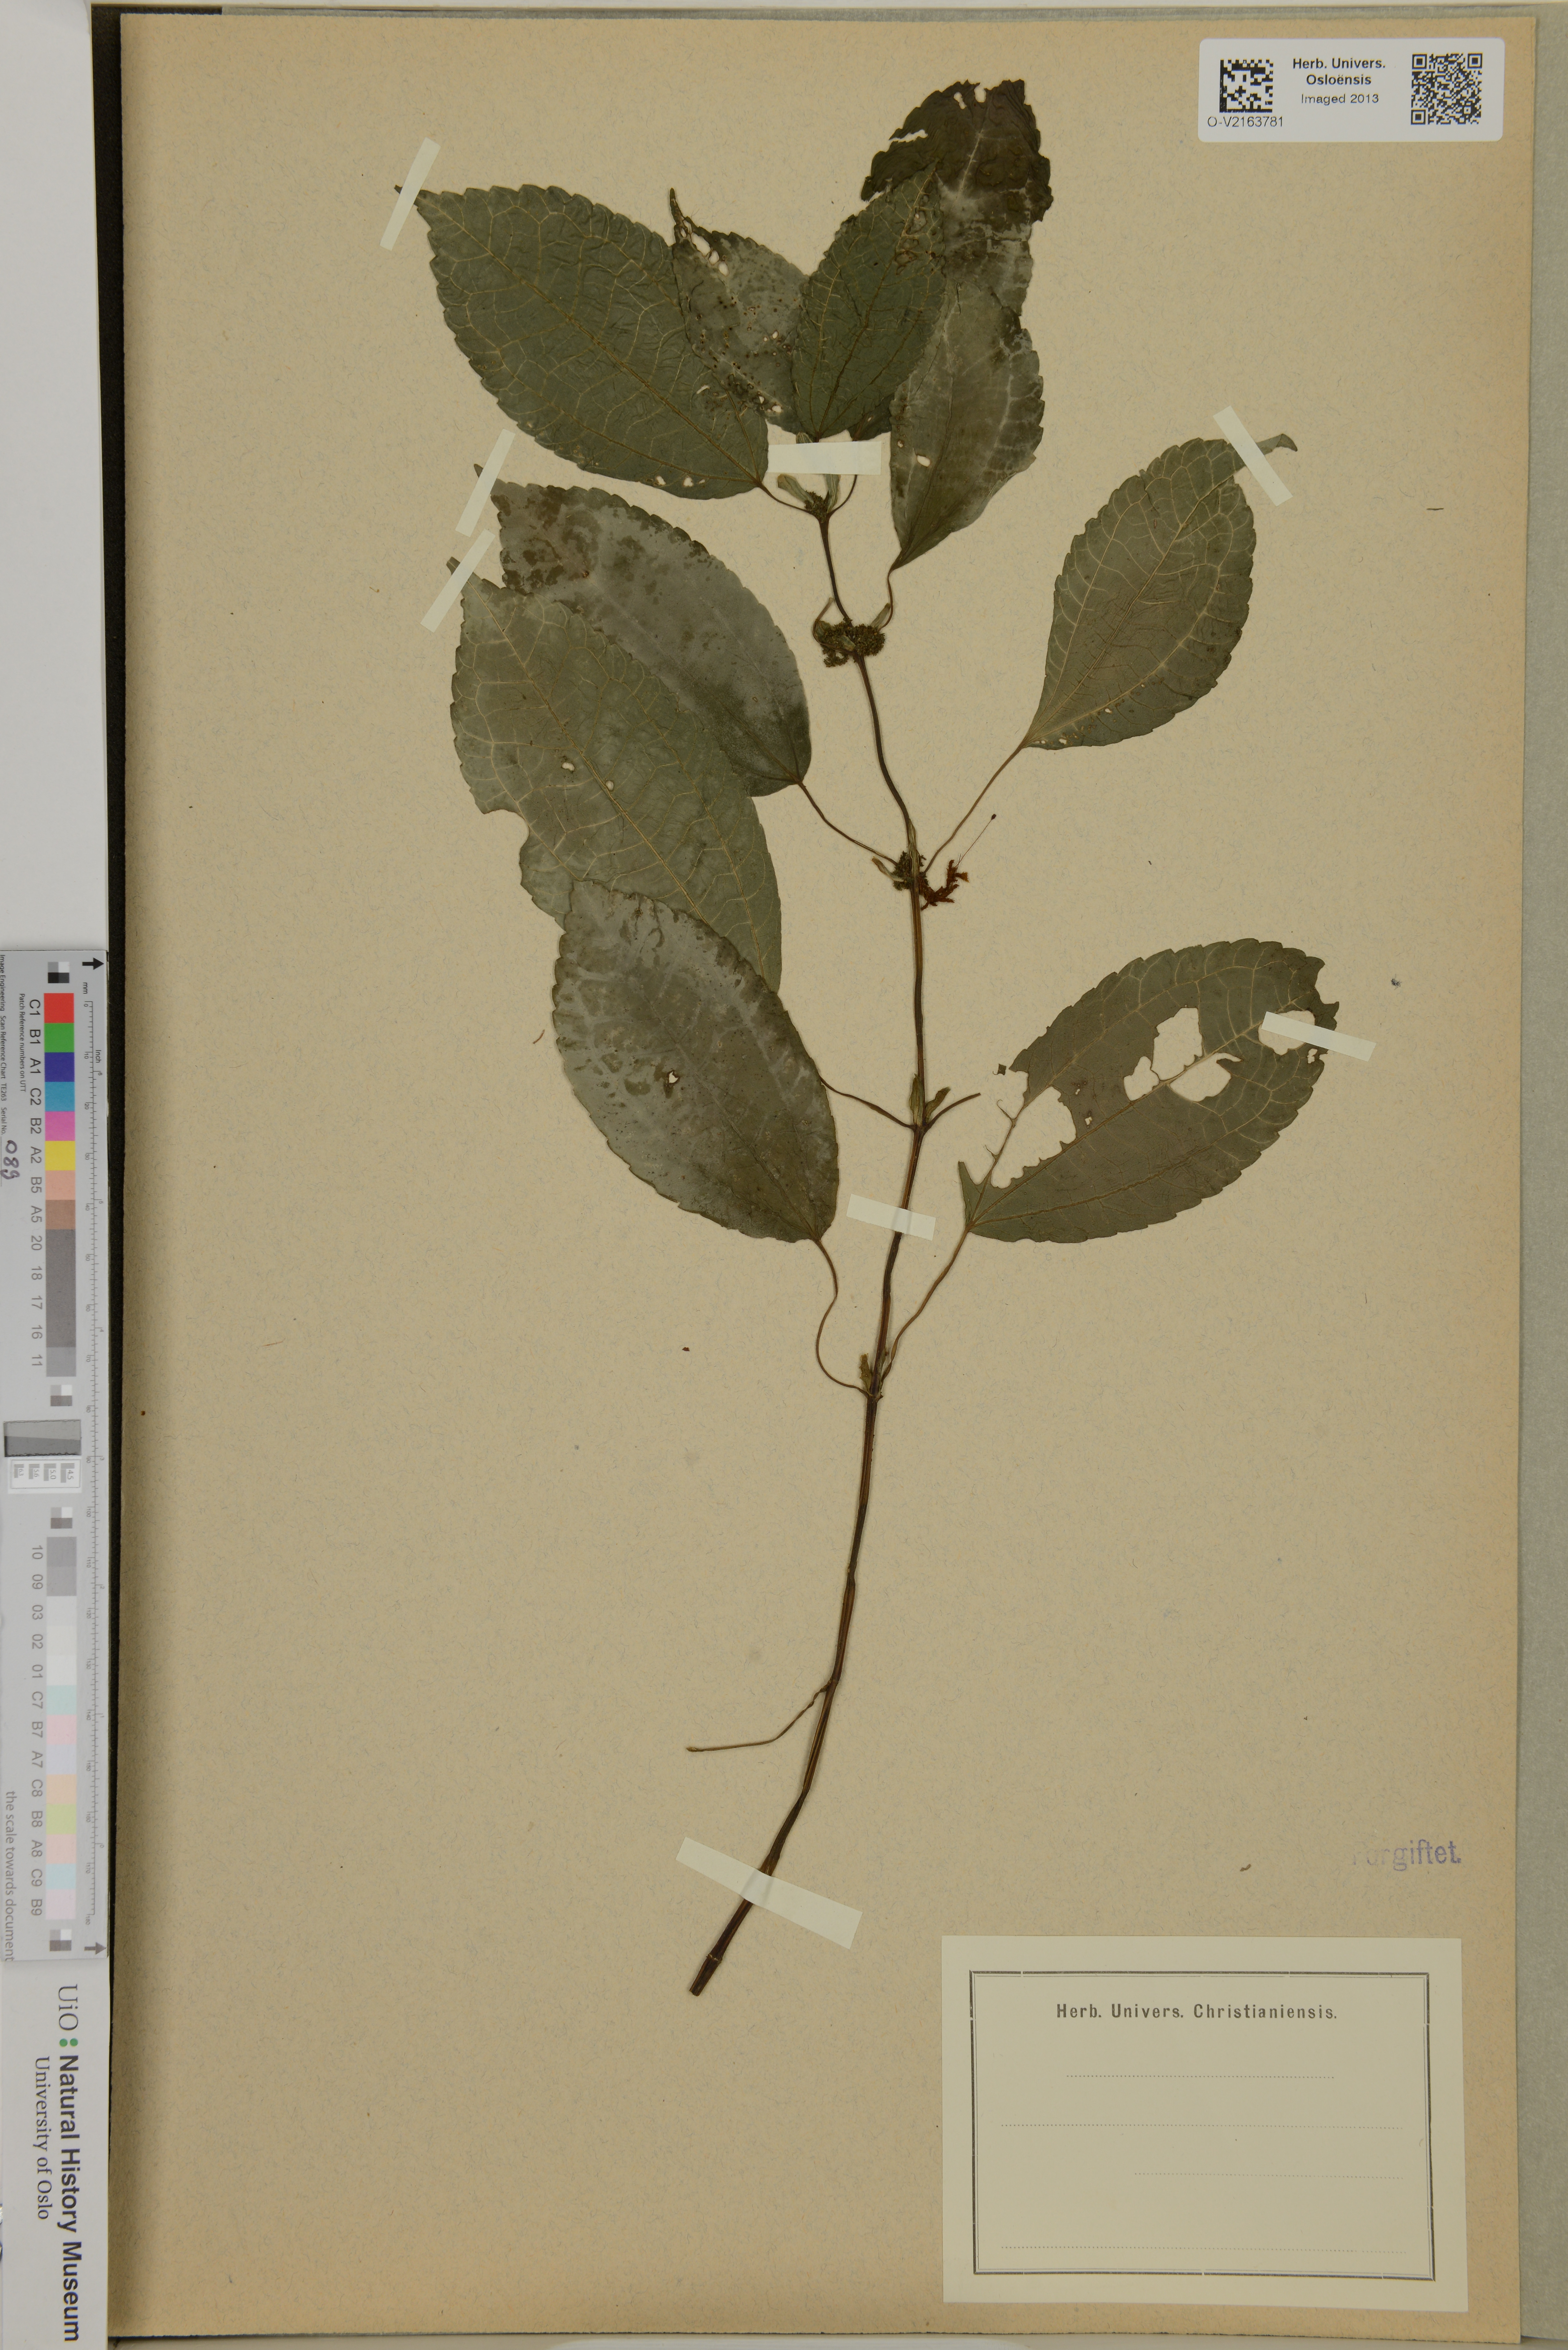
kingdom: Plantae
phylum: Tracheophyta
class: Magnoliopsida
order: Rosales
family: Urticaceae
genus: Pilea
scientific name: Pilea
